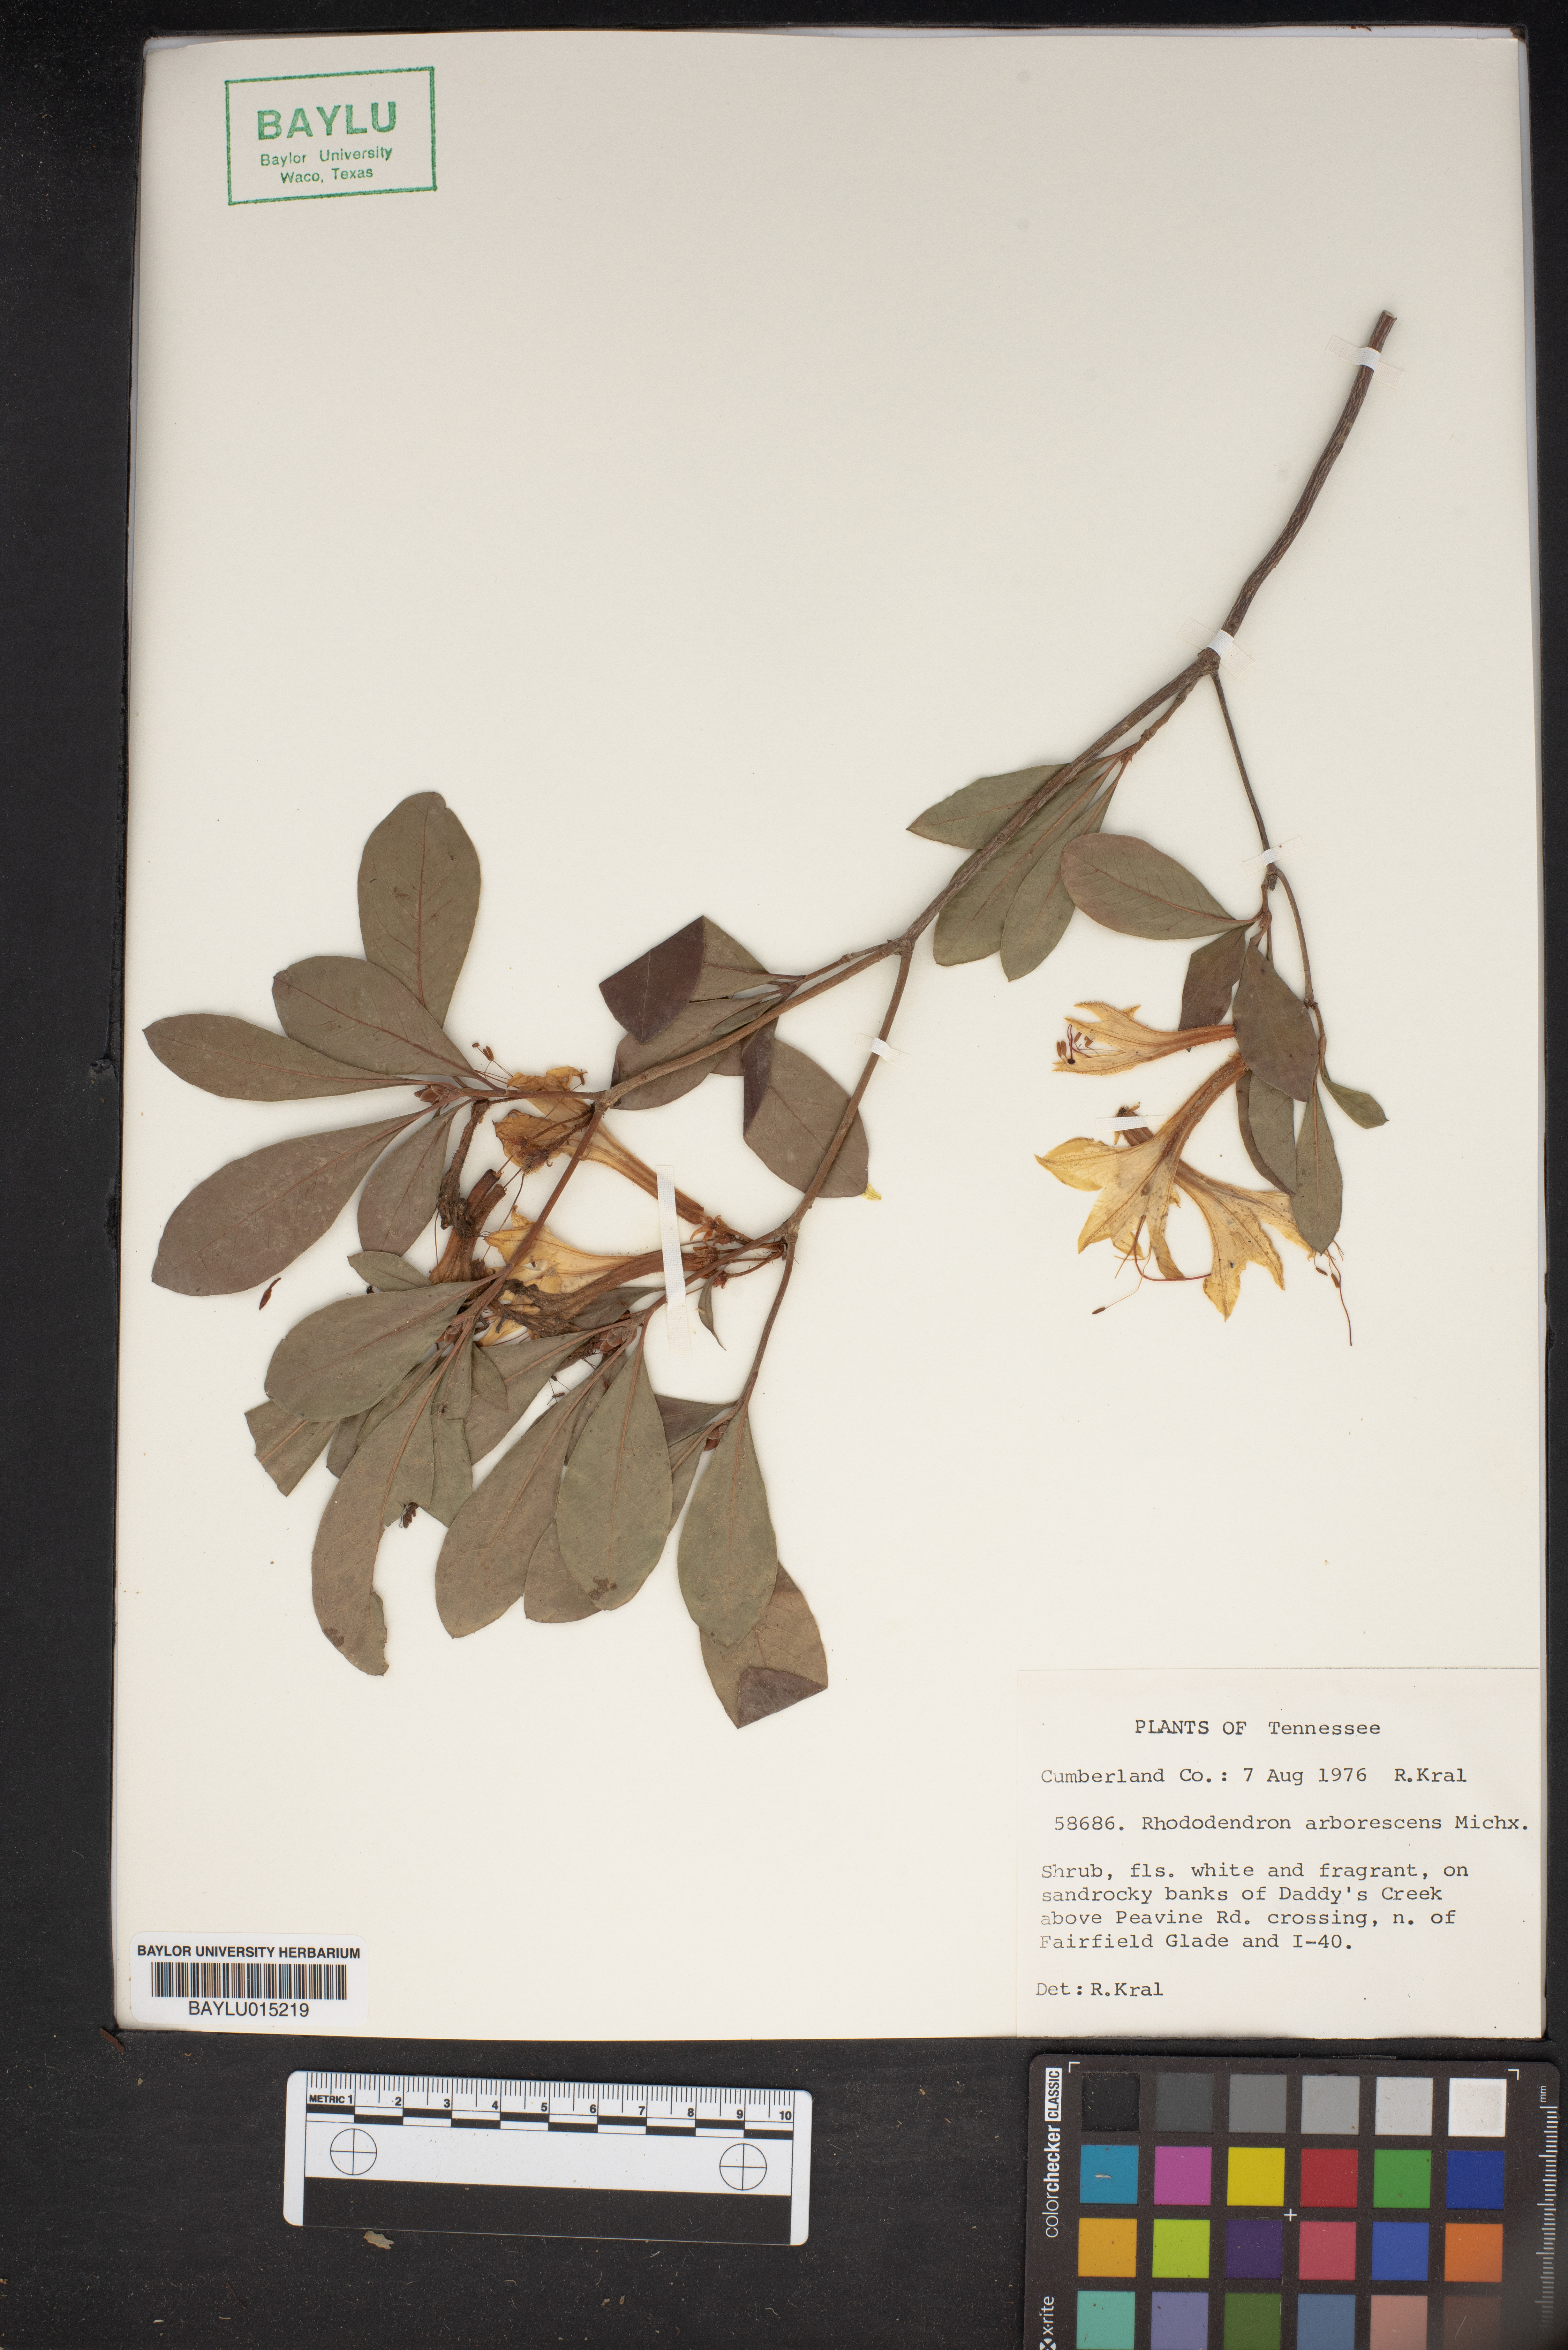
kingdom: Plantae
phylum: Tracheophyta
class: Magnoliopsida
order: Ericales
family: Ericaceae
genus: Rhododendron
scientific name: Rhododendron arborescens
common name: Sweet azalea
